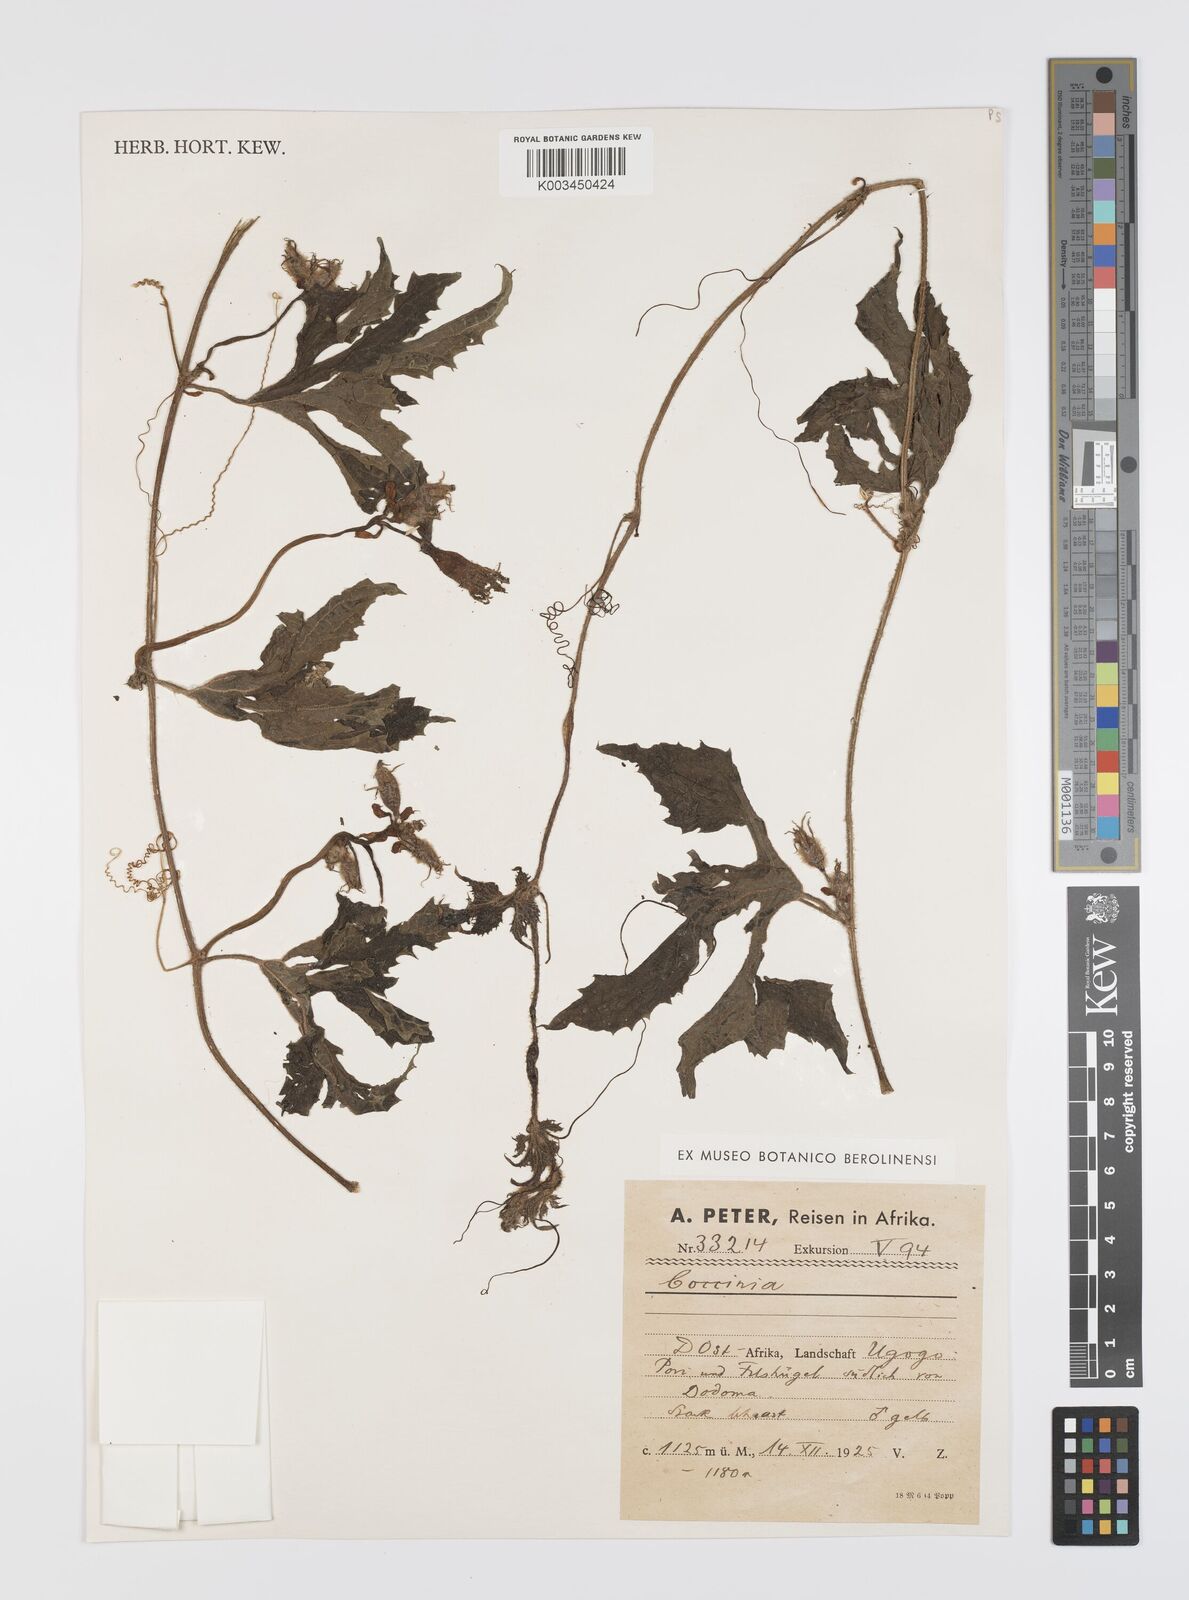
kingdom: Plantae
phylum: Tracheophyta
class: Magnoliopsida
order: Cucurbitales
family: Cucurbitaceae
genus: Peponium
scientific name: Peponium vogelii
